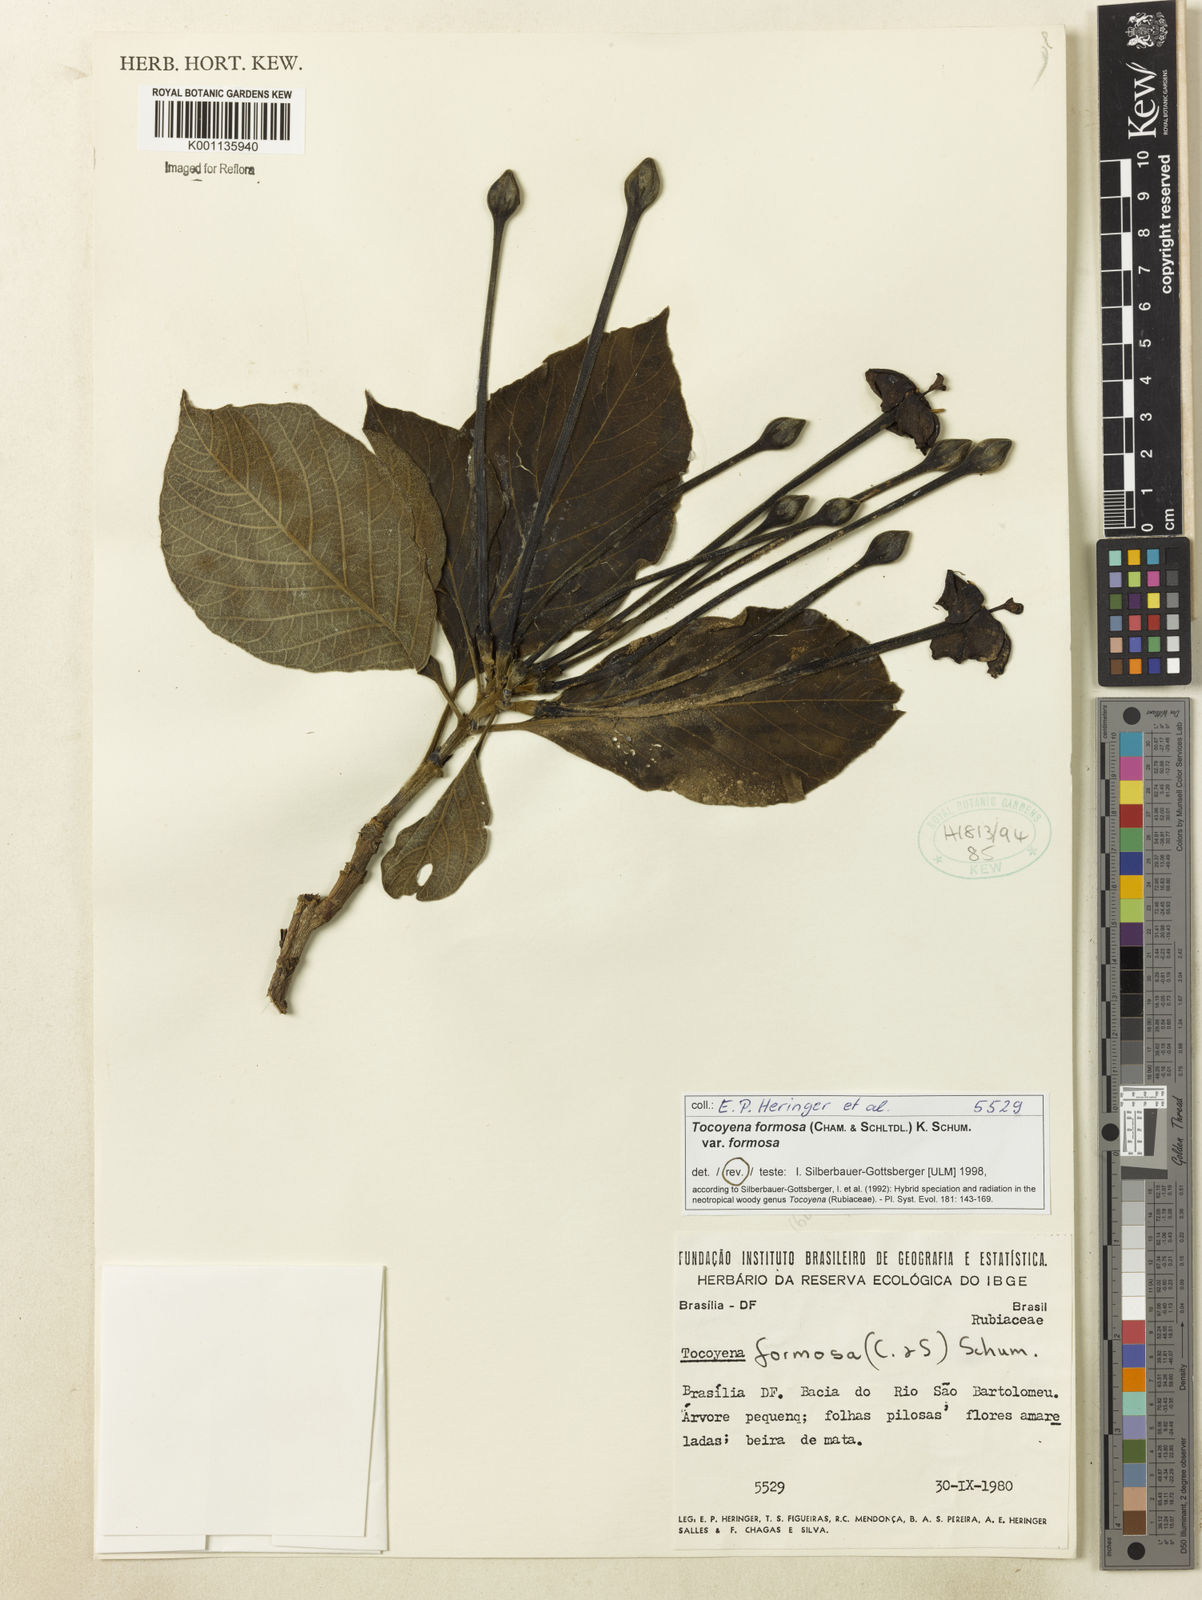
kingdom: Plantae
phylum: Tracheophyta
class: Magnoliopsida
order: Gentianales
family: Rubiaceae
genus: Tocoyena
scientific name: Tocoyena formosa
